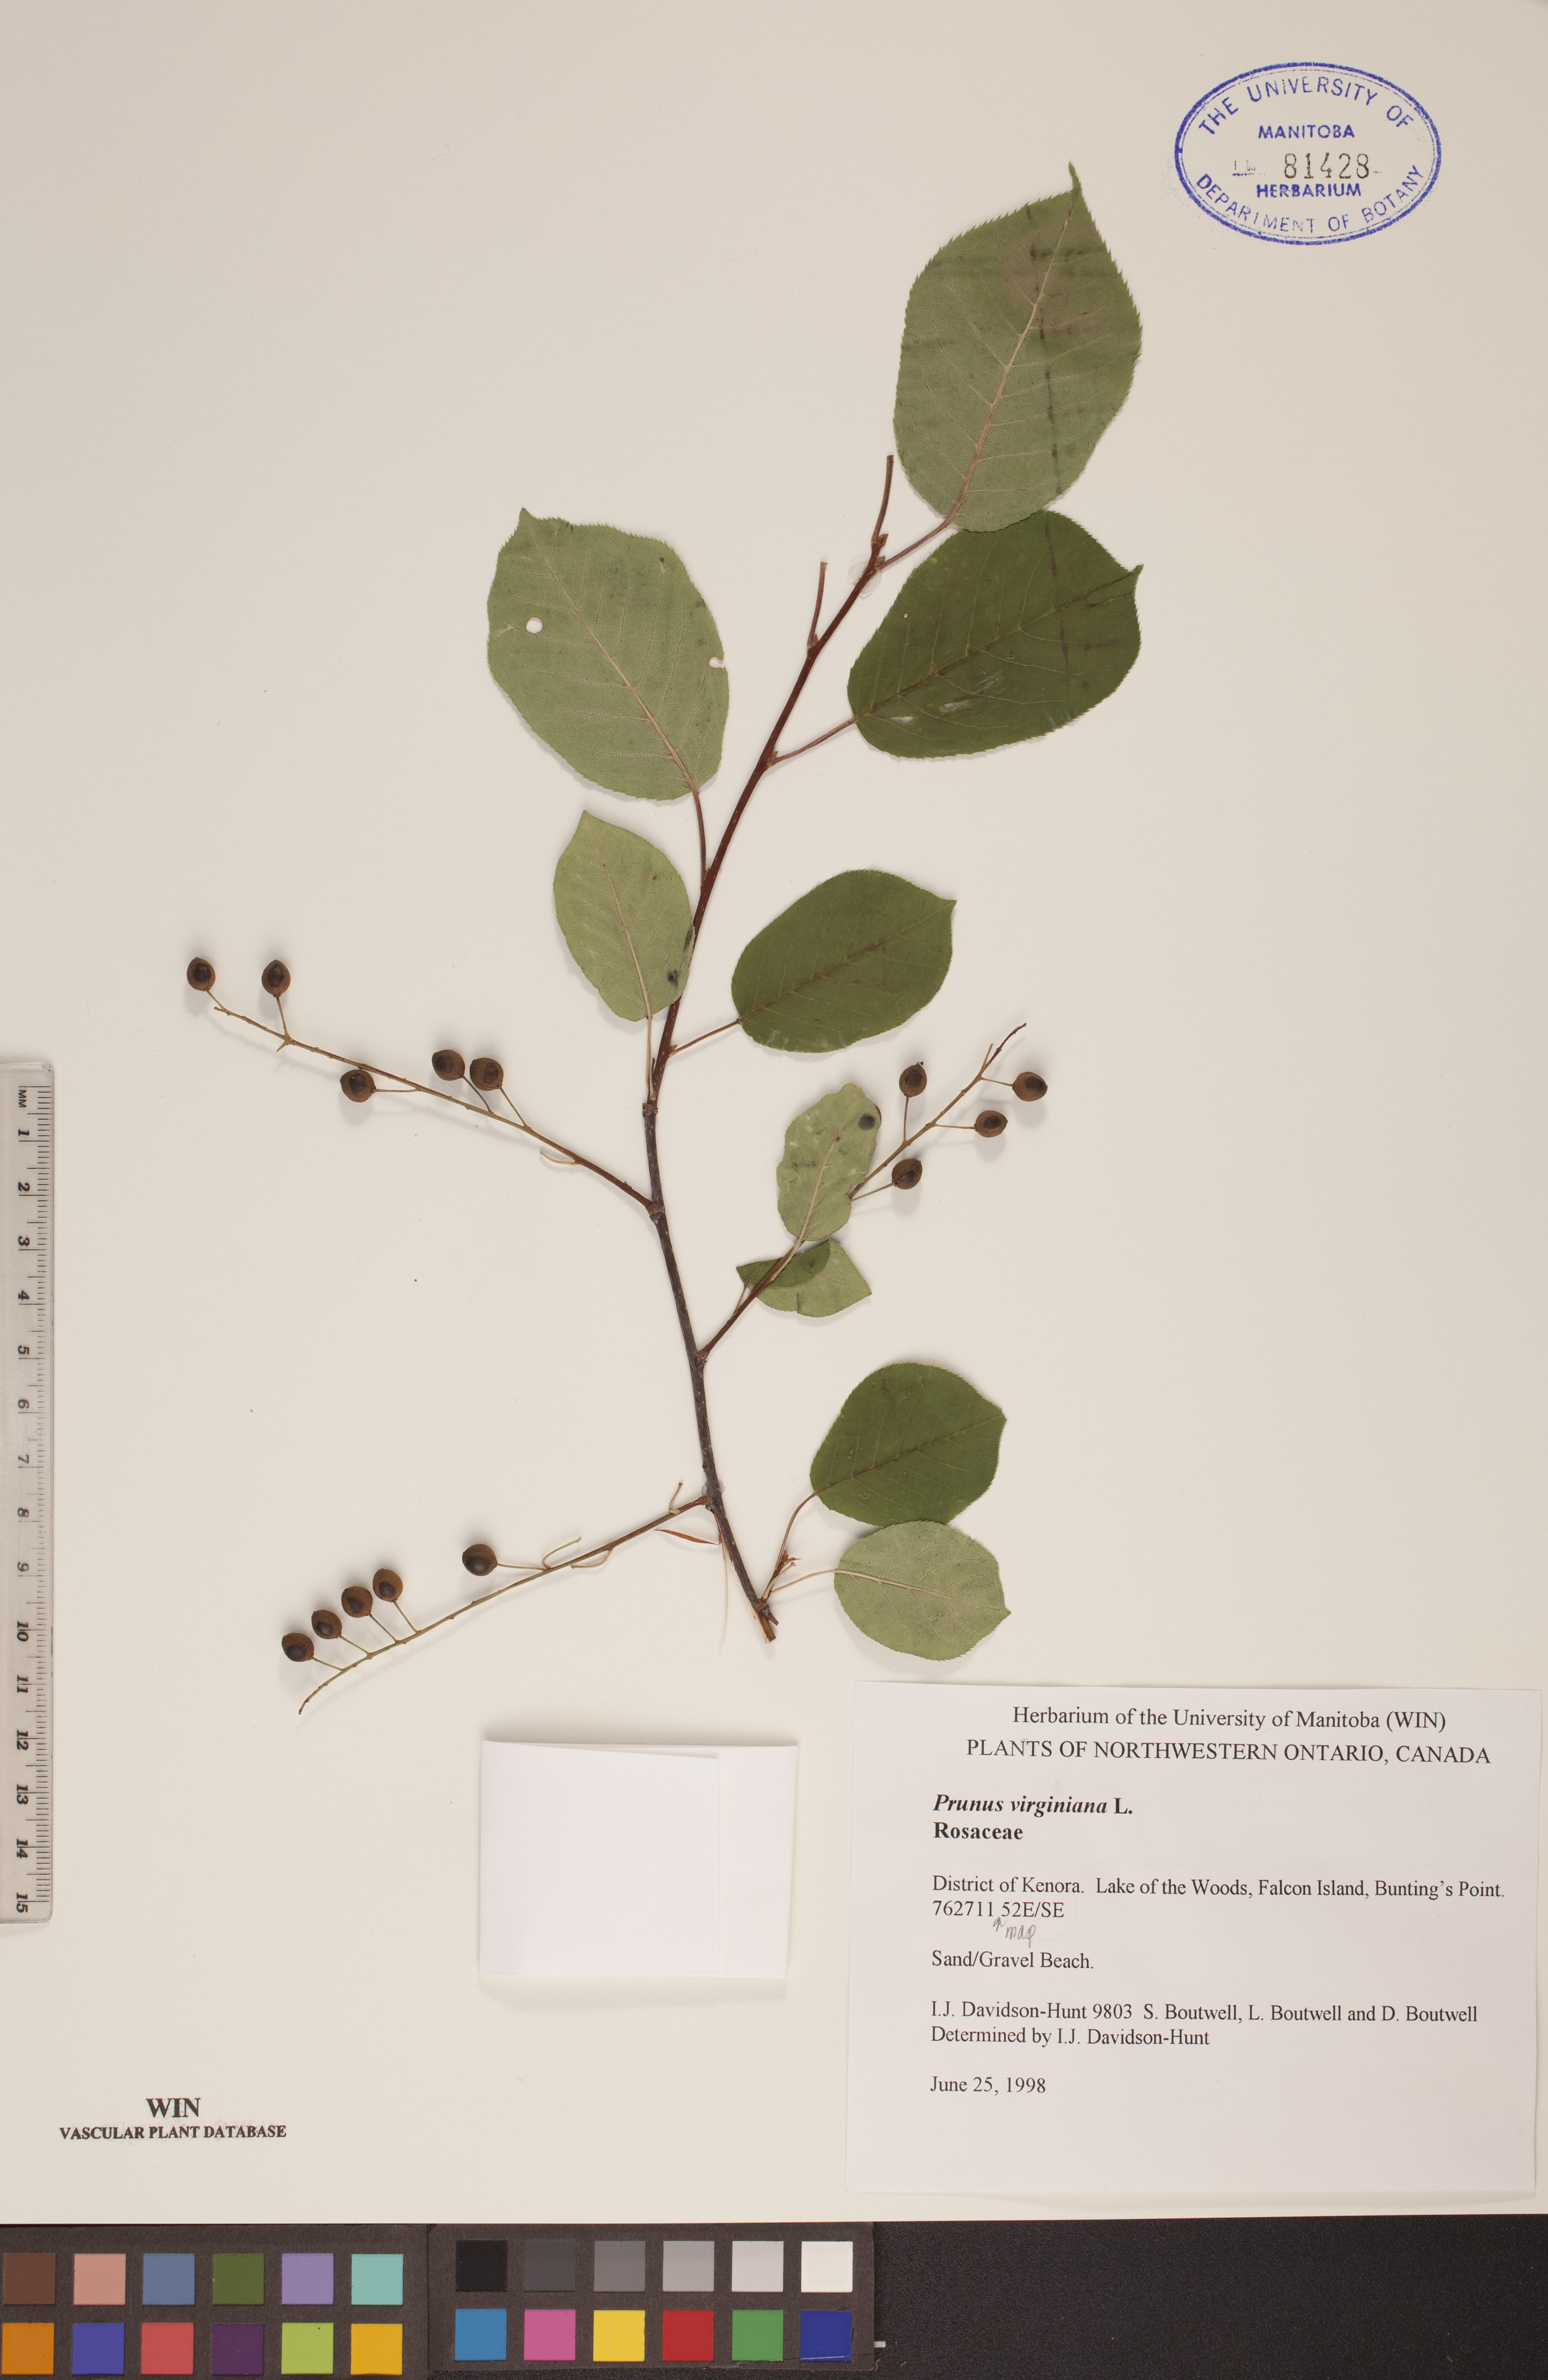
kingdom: Plantae
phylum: Tracheophyta
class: Magnoliopsida
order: Rosales
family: Rosaceae
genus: Prunus
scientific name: Prunus virginiana
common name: Chokecherry
